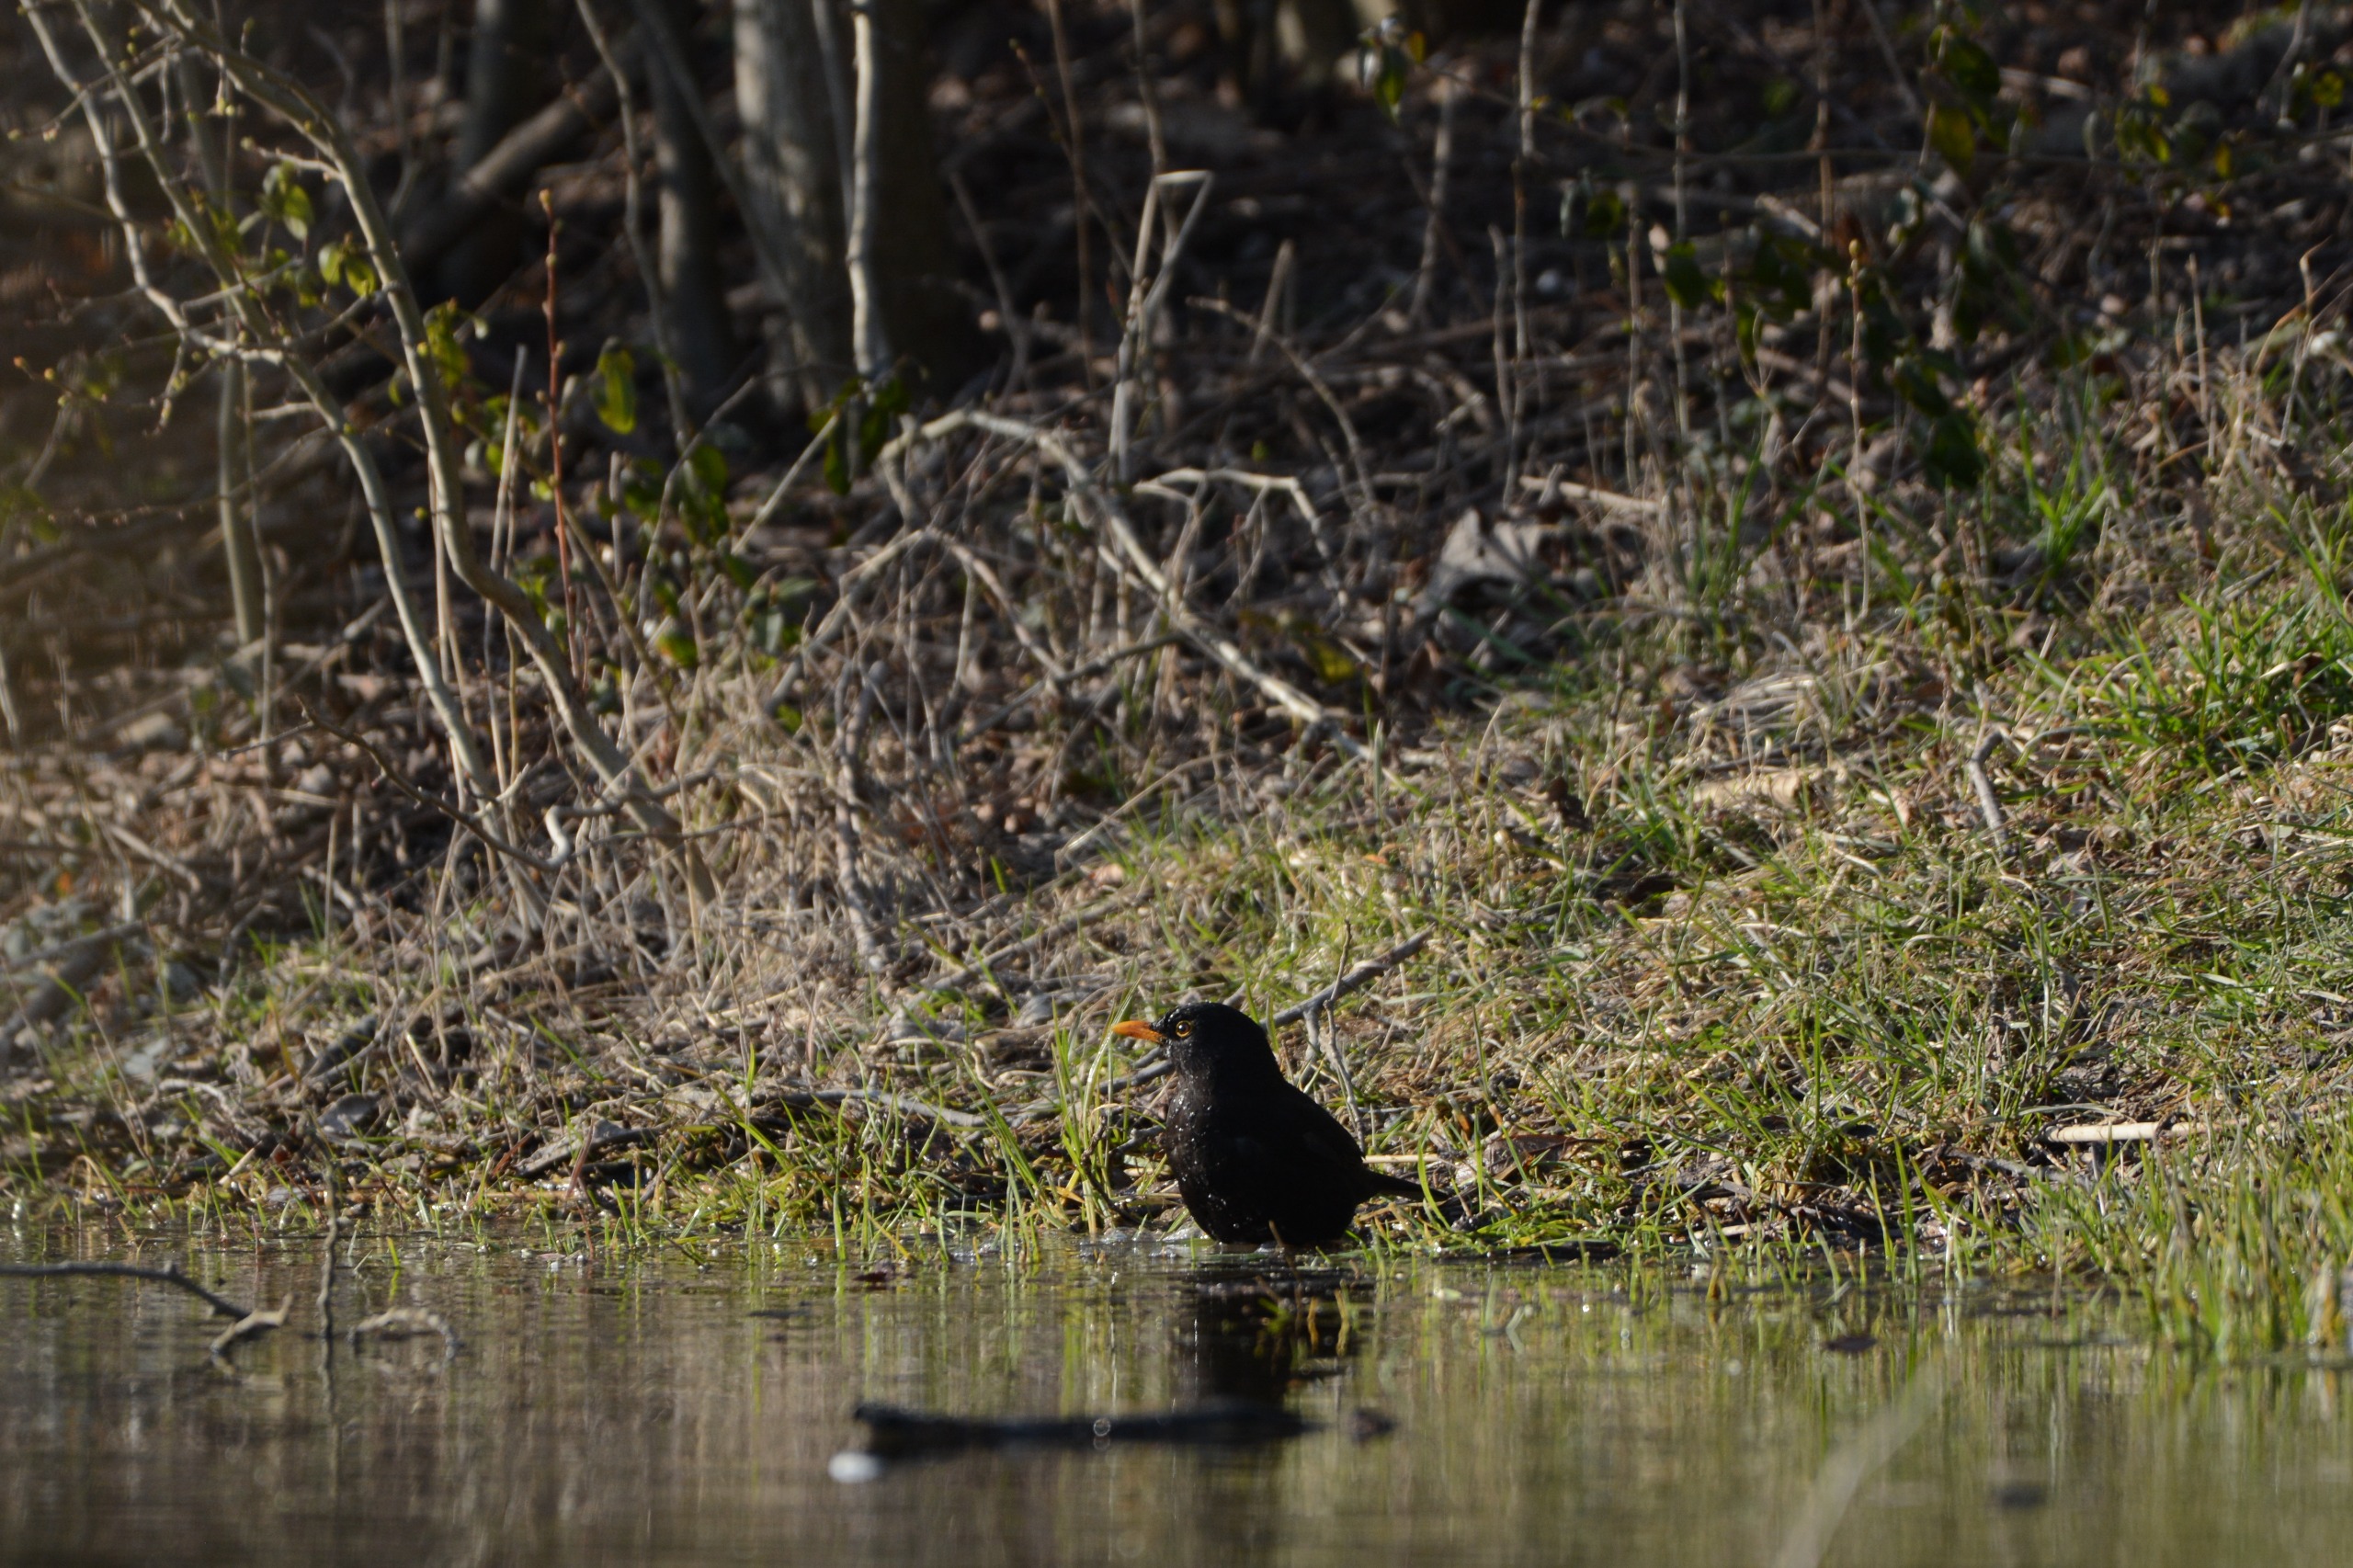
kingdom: Animalia
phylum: Chordata
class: Aves
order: Passeriformes
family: Turdidae
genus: Turdus
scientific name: Turdus merula
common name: Solsort
